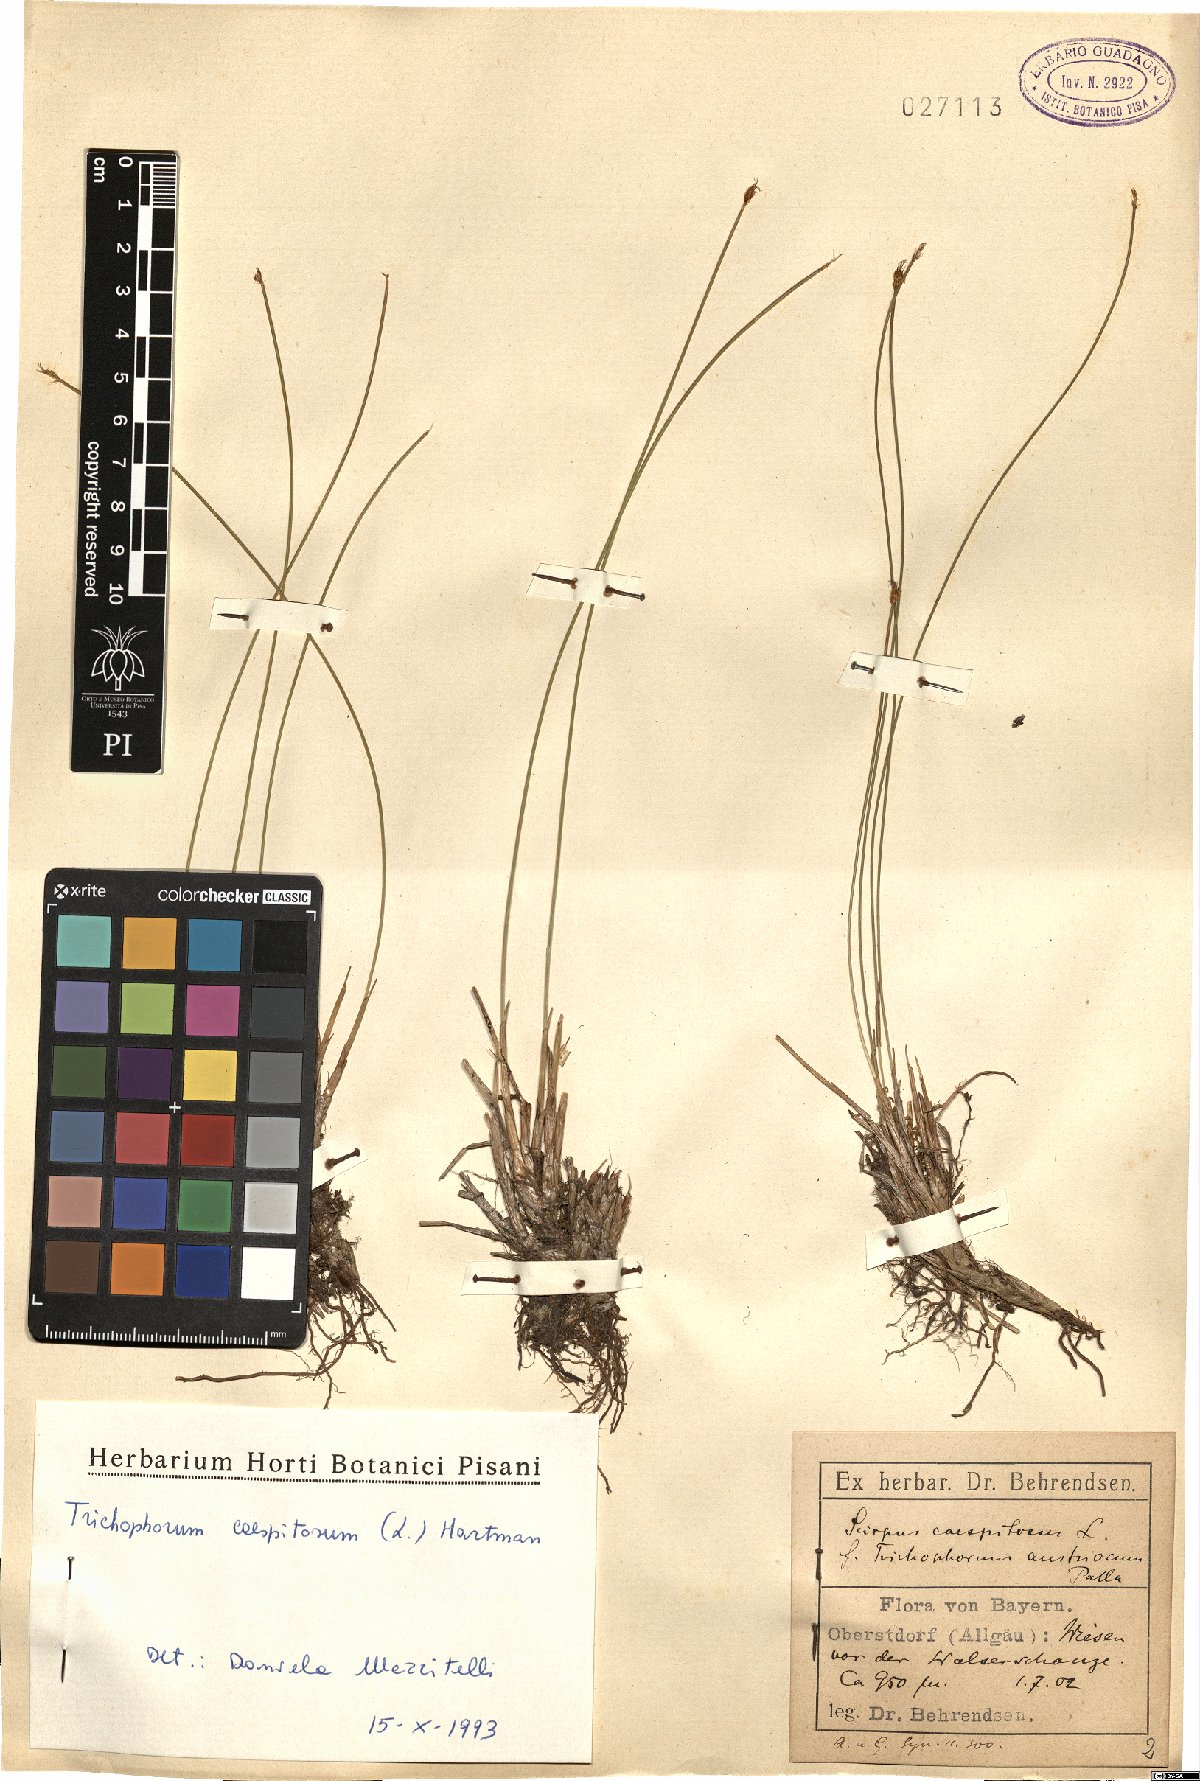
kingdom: Plantae
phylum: Tracheophyta
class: Liliopsida
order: Poales
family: Cyperaceae
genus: Trichophorum
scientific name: Trichophorum cespitosum
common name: Cespitose bulrush
